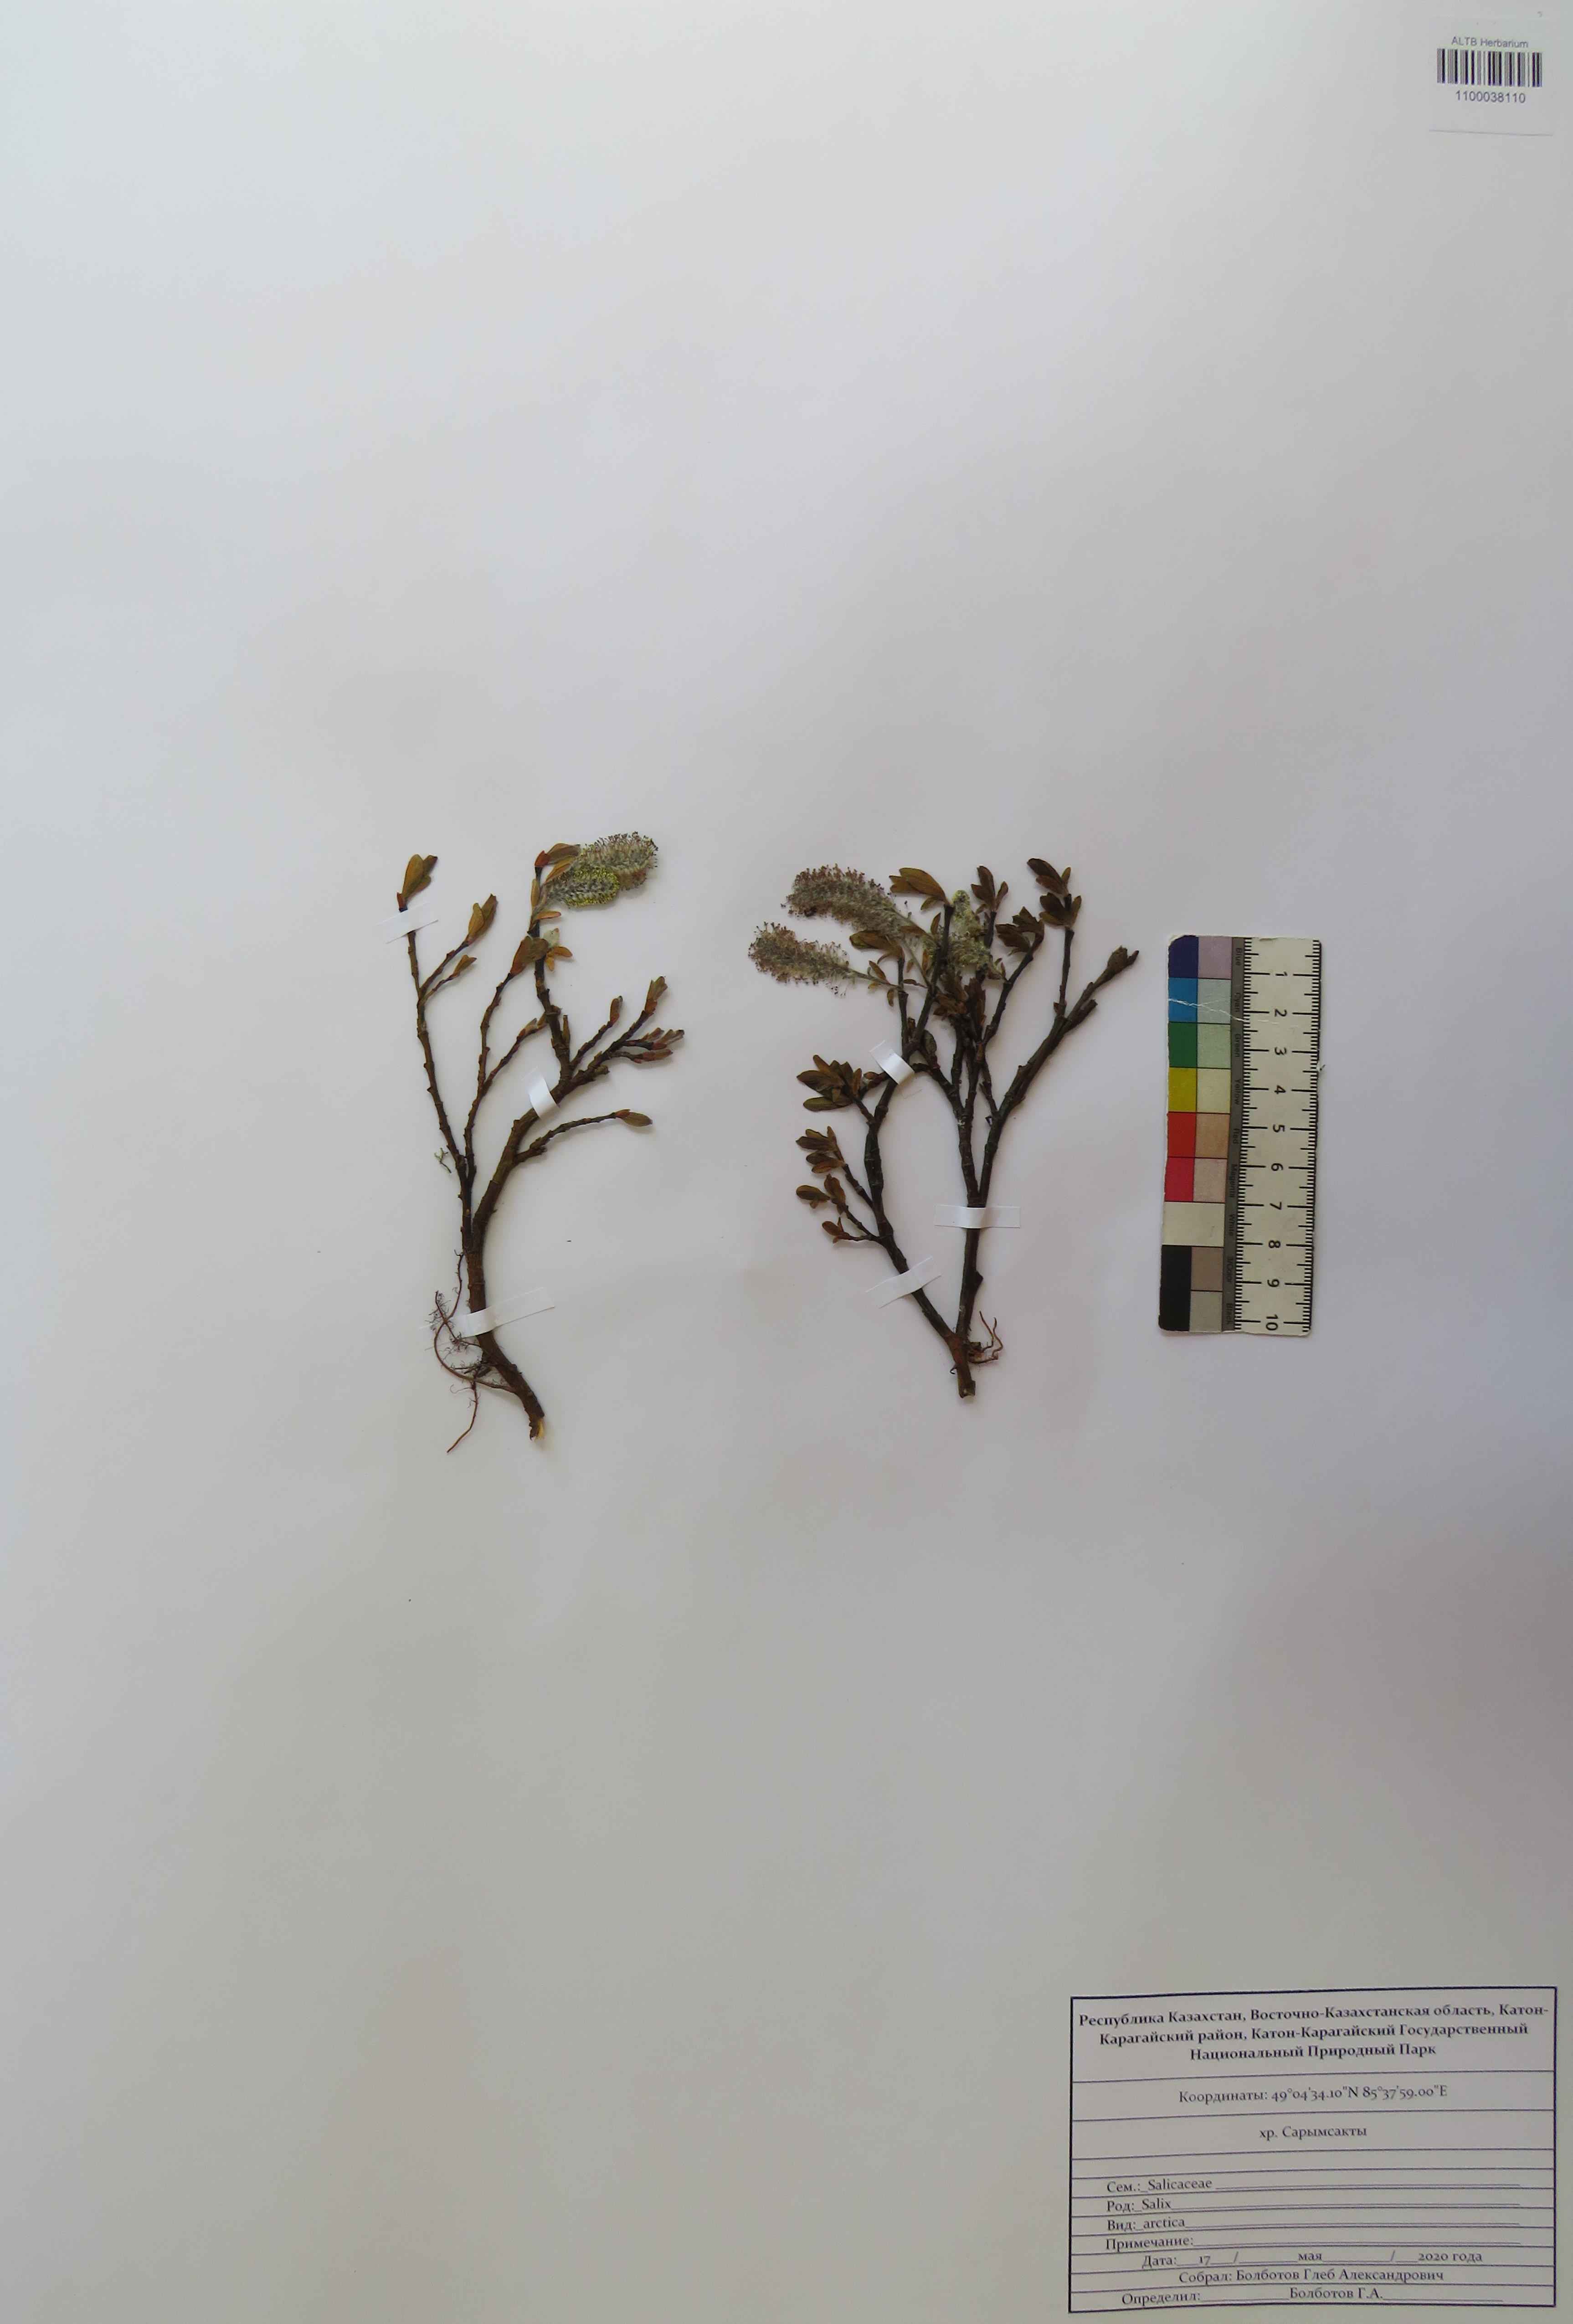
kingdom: Plantae
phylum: Tracheophyta
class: Magnoliopsida
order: Malpighiales
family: Salicaceae
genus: Salix
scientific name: Salix arctica
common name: Arctic willow
